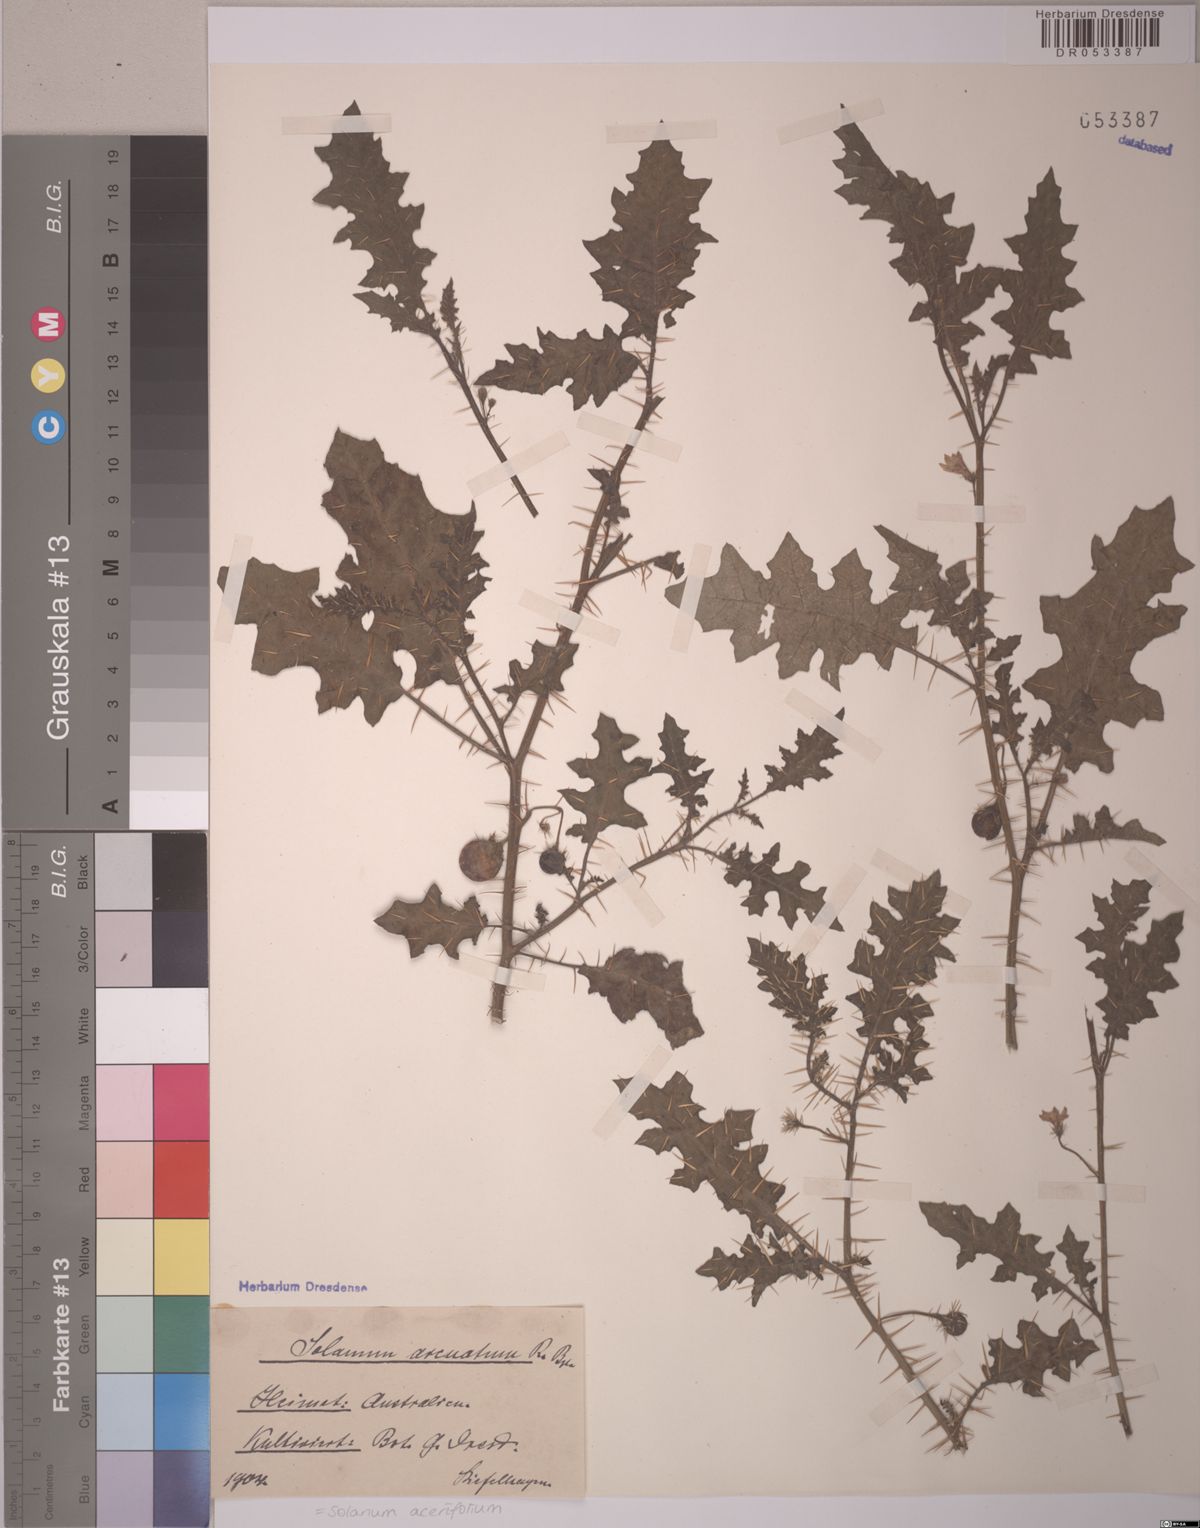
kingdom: Plantae
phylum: Tracheophyta
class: Magnoliopsida
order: Solanales
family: Solanaceae
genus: Solanum
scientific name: Solanum acerifolium
